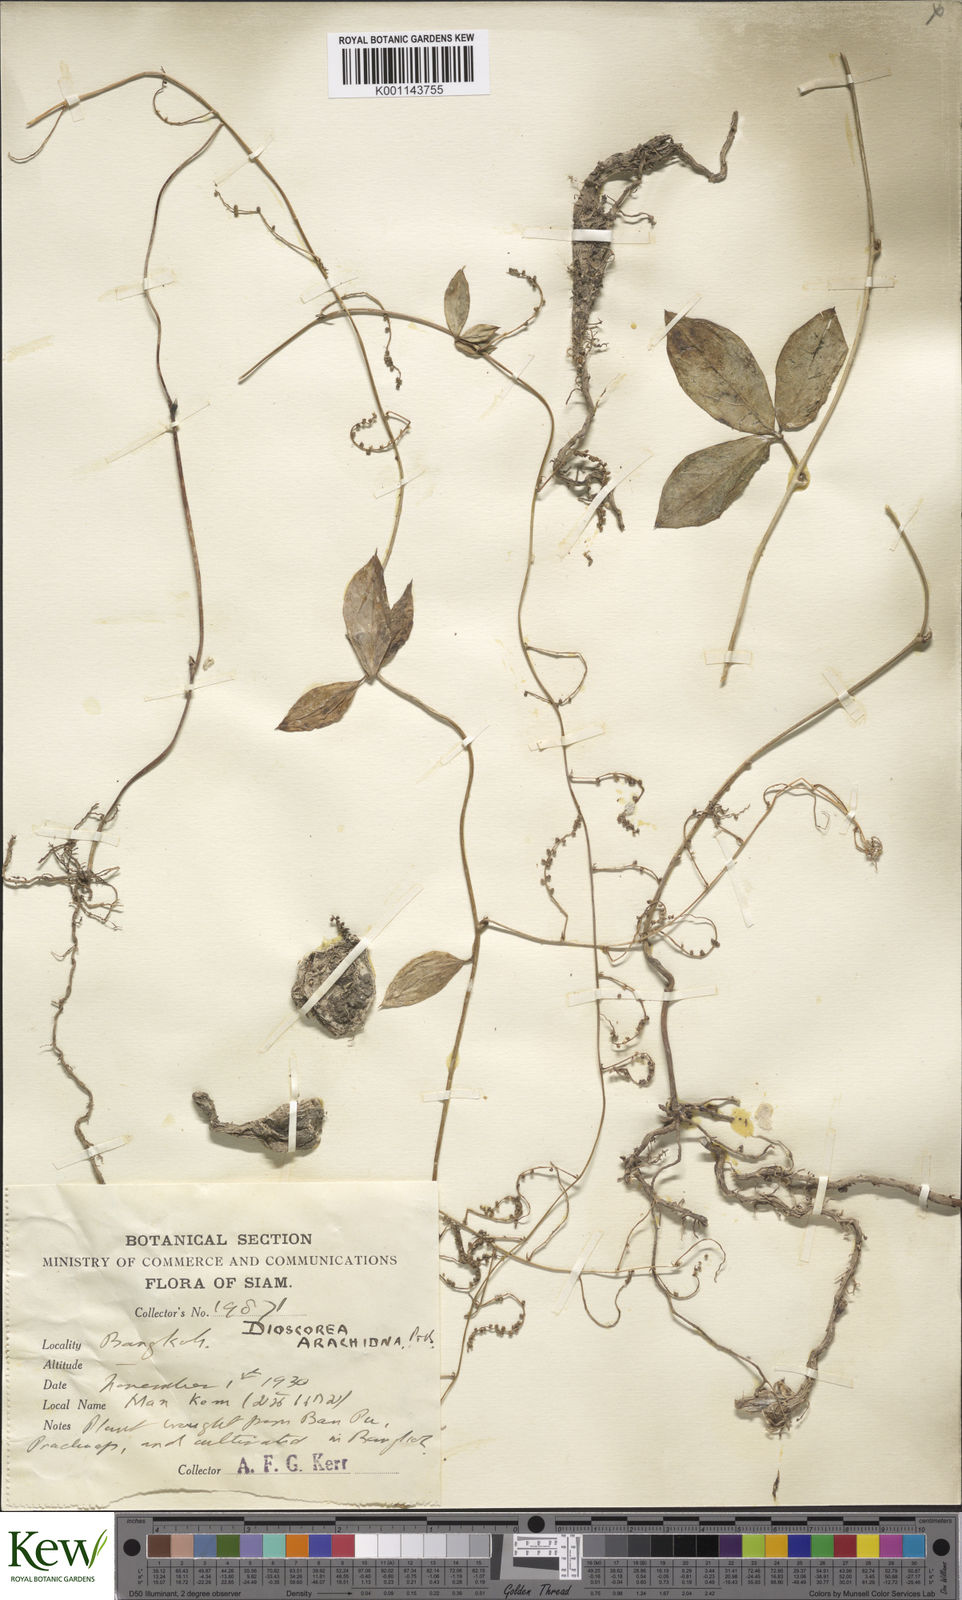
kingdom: Plantae
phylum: Tracheophyta
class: Liliopsida
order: Dioscoreales
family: Dioscoreaceae
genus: Dioscorea
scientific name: Dioscorea pentaphylla
